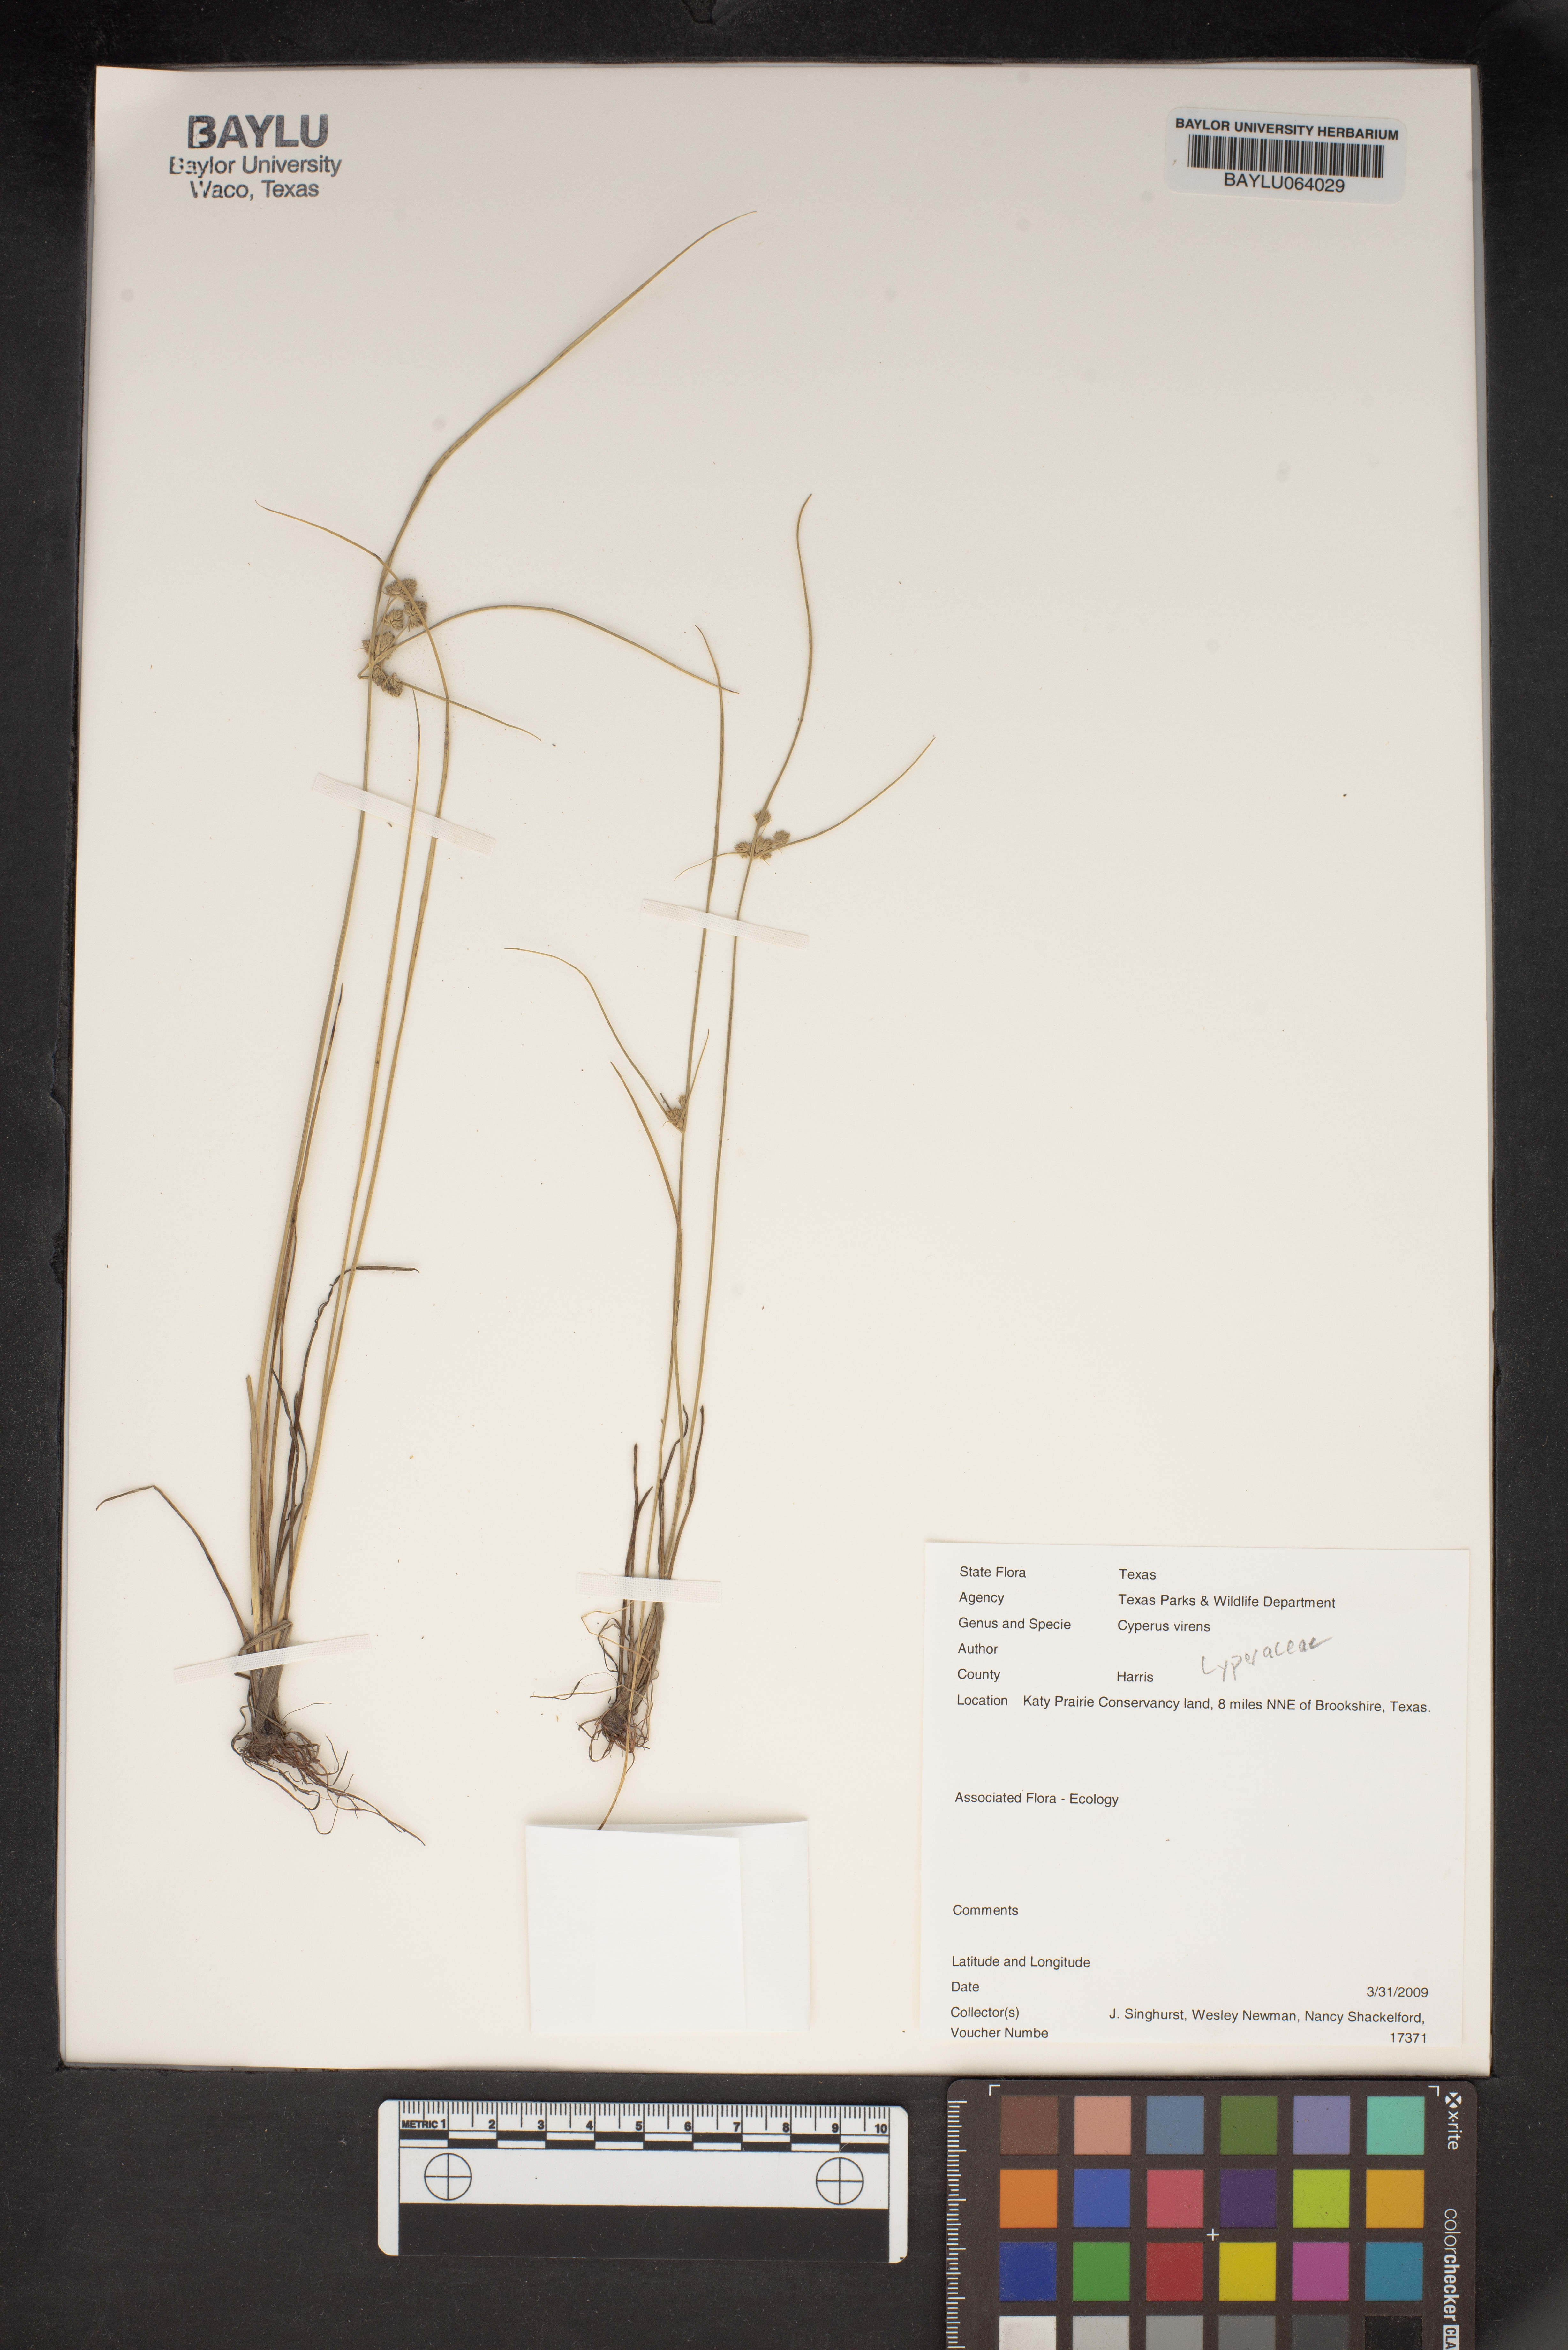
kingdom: Plantae
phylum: Tracheophyta
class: Liliopsida
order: Poales
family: Cyperaceae
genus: Cyperus
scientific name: Cyperus virens
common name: Green flatsedge
